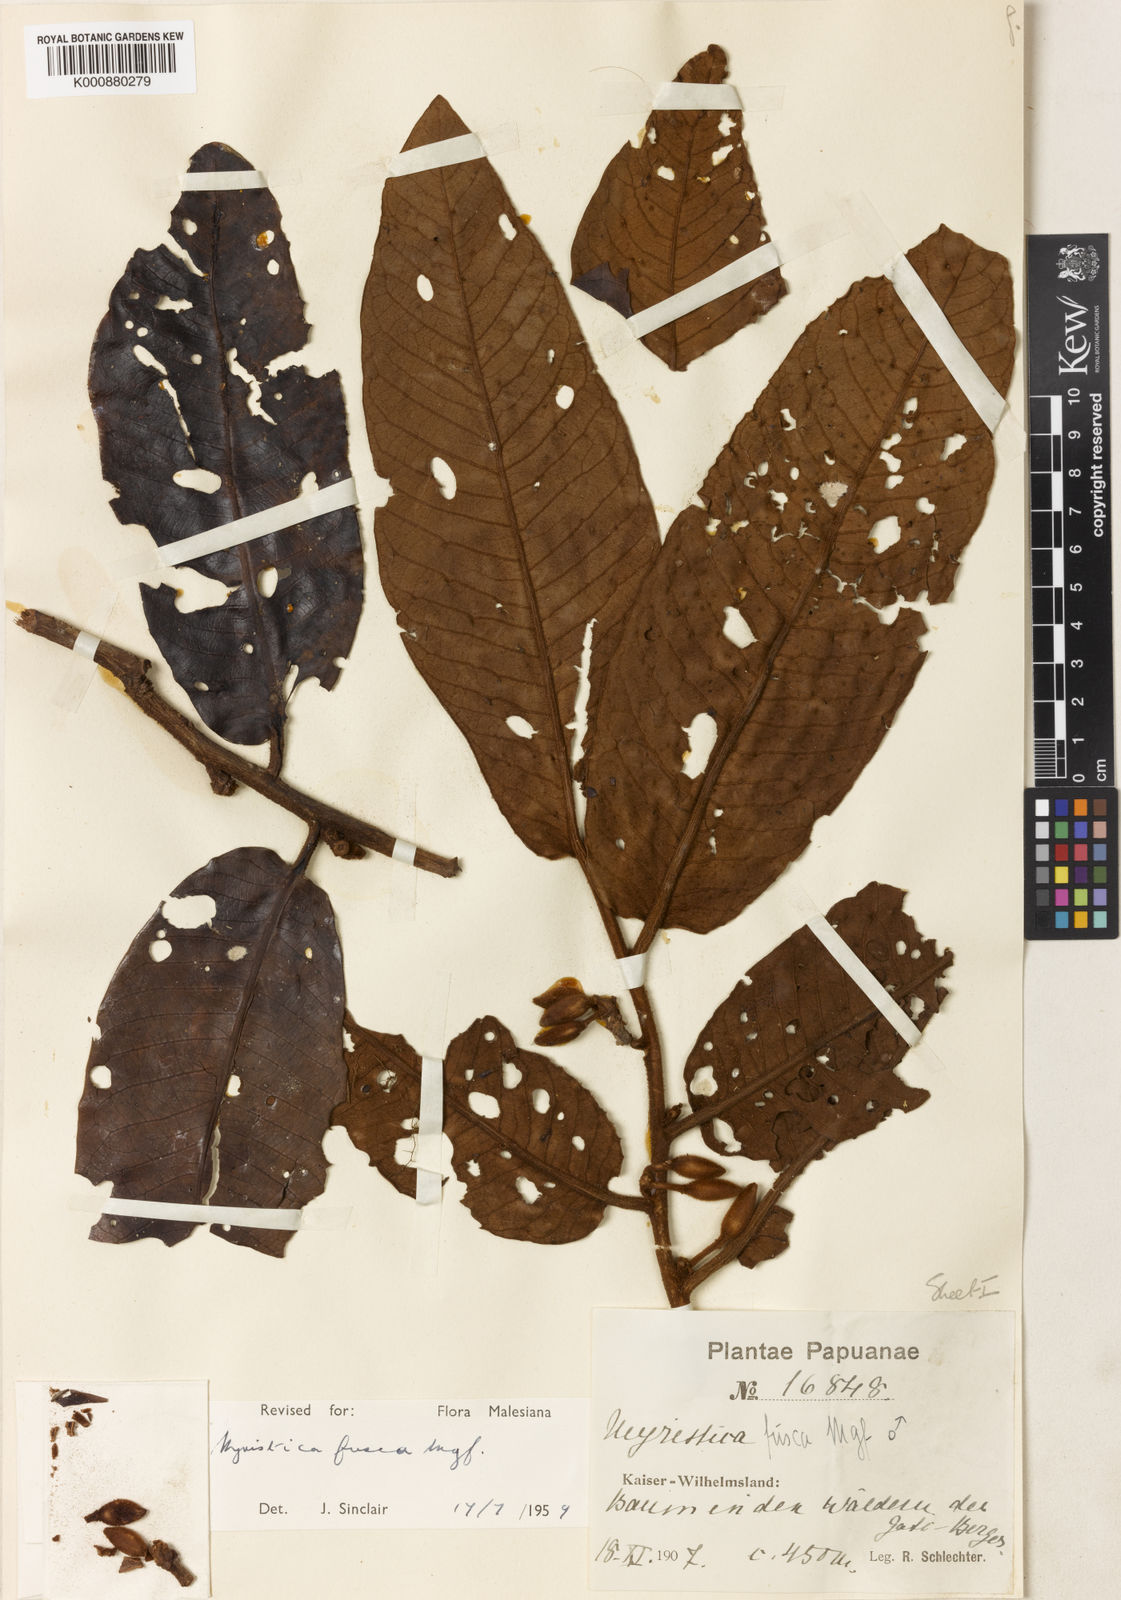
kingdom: Plantae
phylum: Tracheophyta
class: Magnoliopsida
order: Magnoliales
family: Myristicaceae
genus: Myristica
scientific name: Myristica fusca
